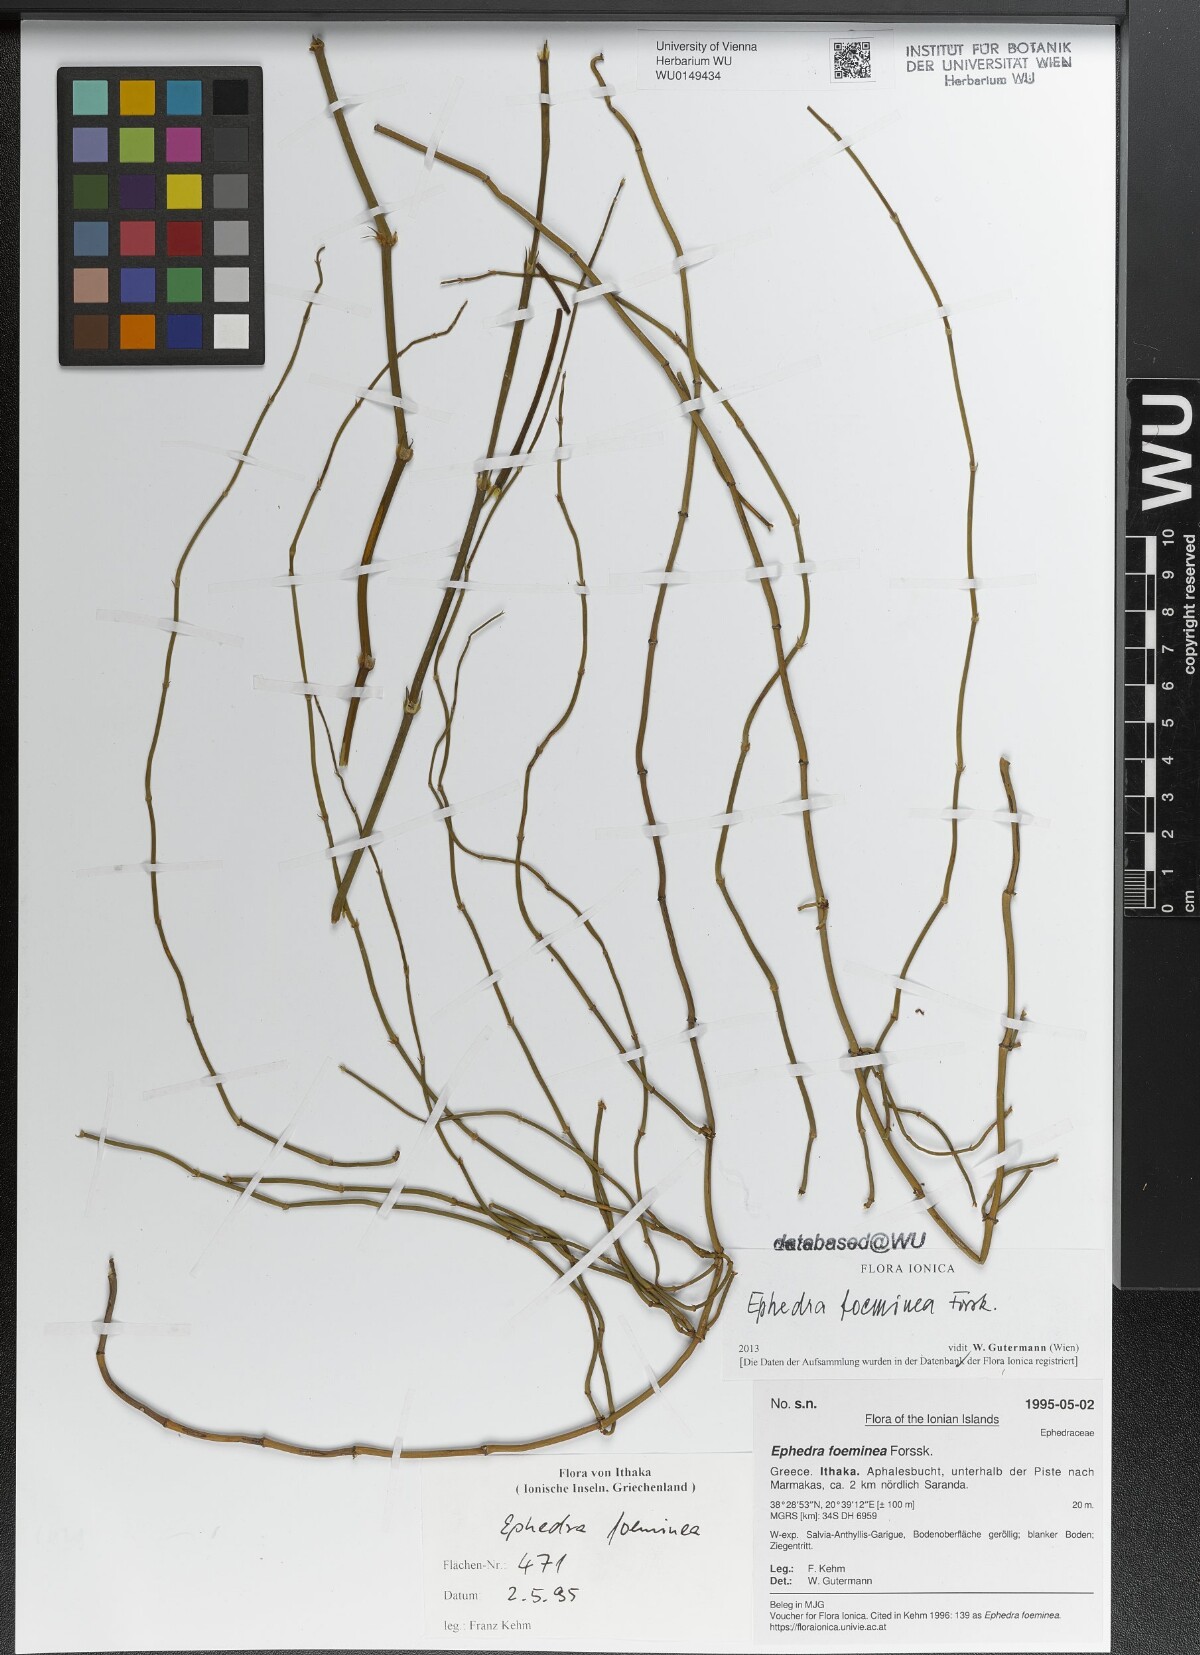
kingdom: Plantae
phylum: Tracheophyta
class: Gnetopsida
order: Ephedrales
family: Ephedraceae
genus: Ephedra
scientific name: Ephedra foeminea
